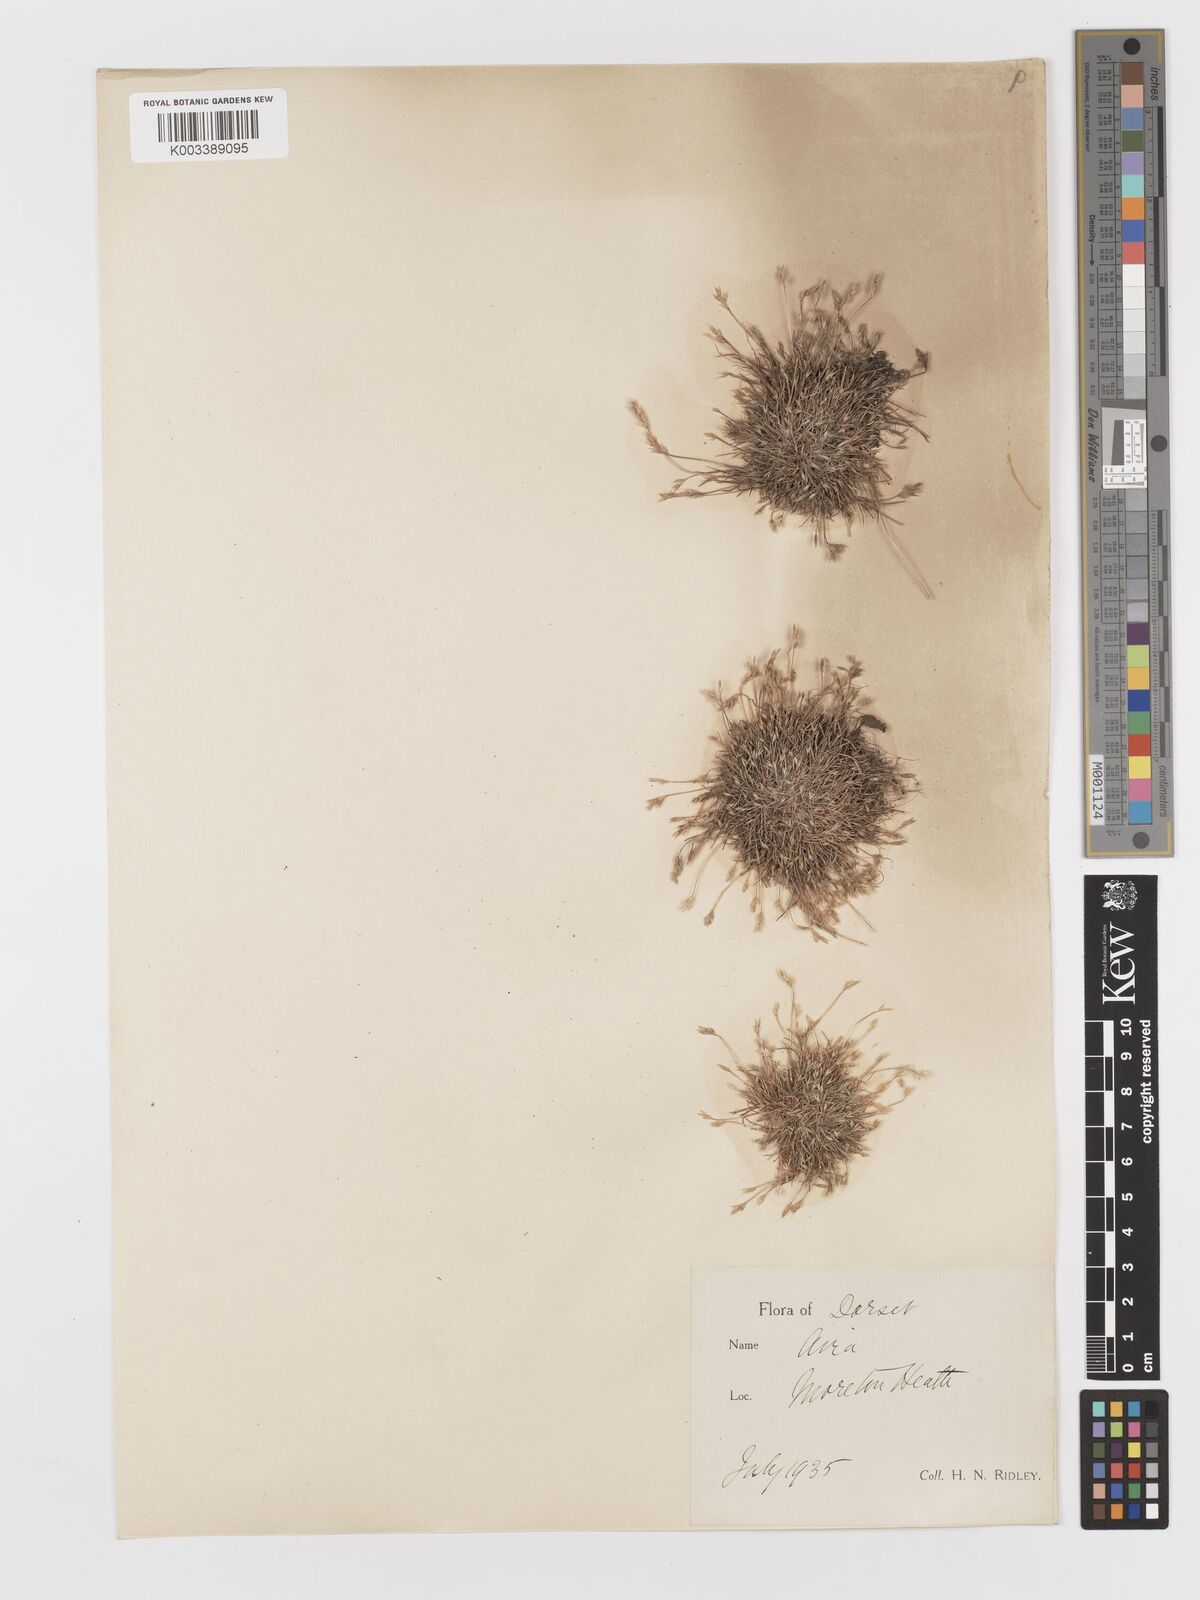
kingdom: Plantae
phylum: Tracheophyta
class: Liliopsida
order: Poales
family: Poaceae
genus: Aira
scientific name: Aira praecox
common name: Early hair-grass
